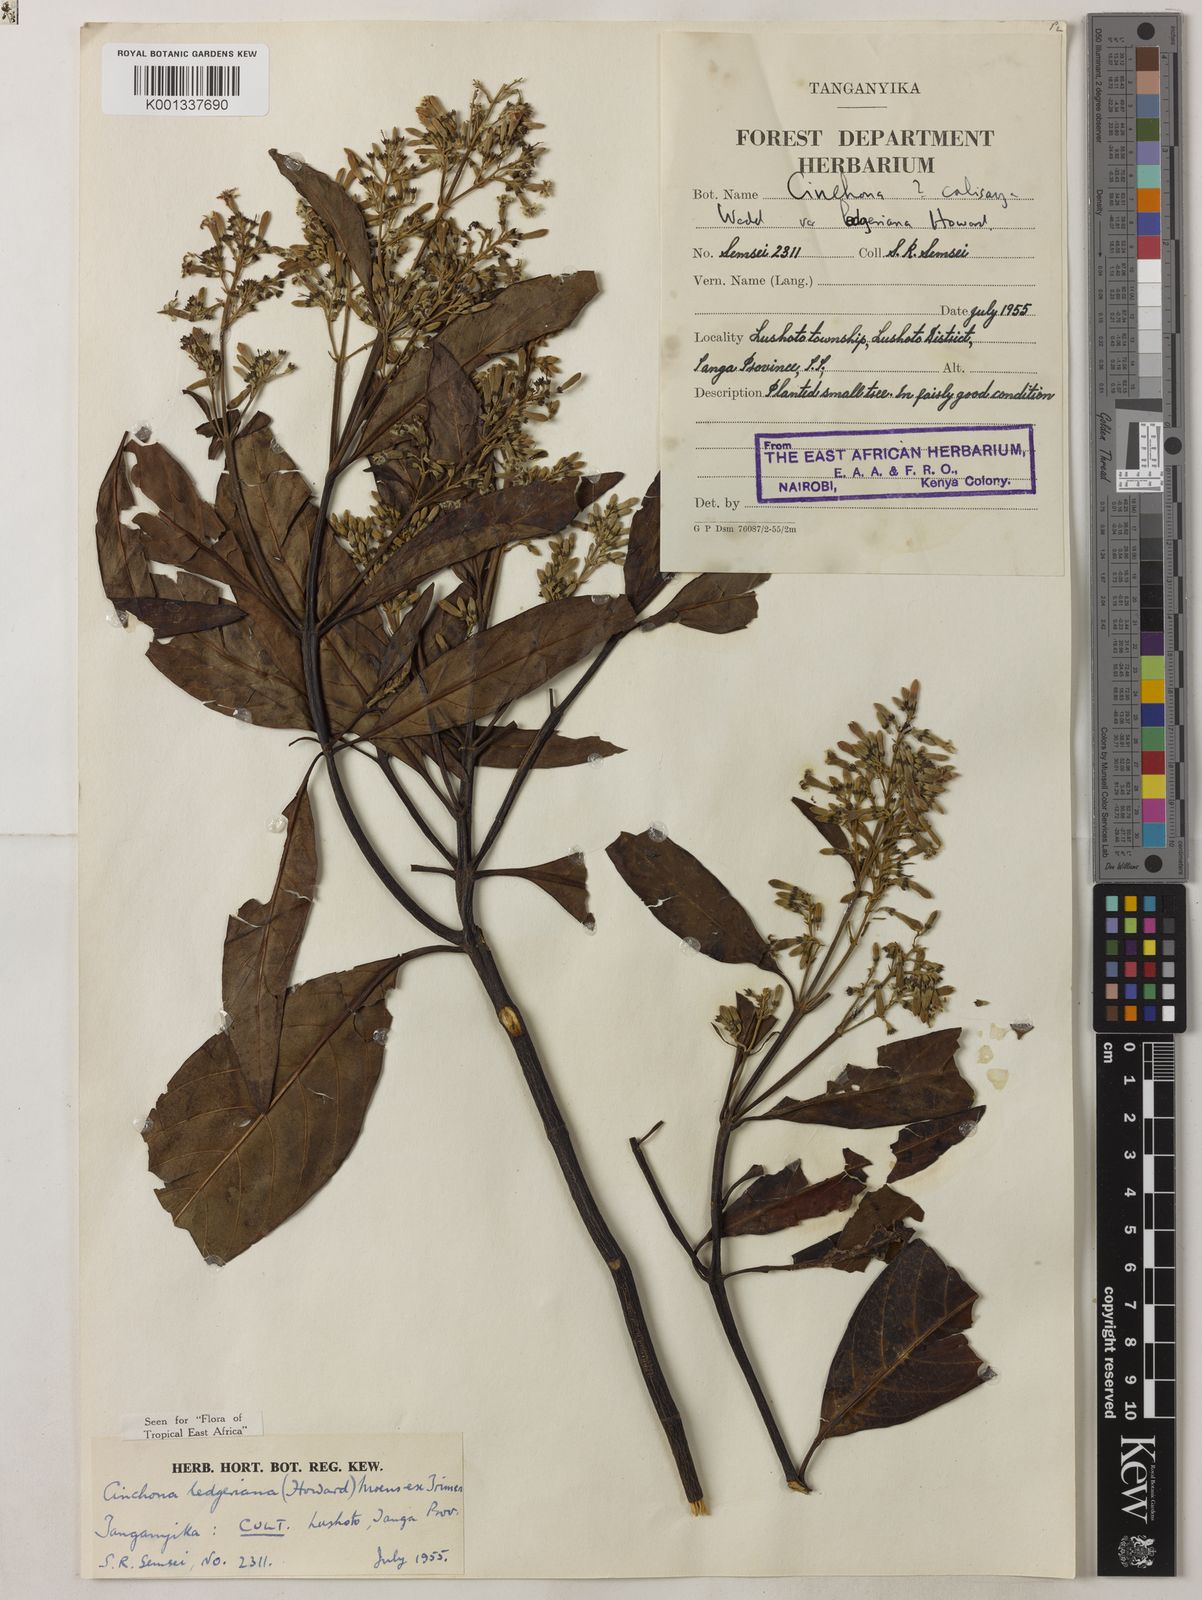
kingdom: Plantae
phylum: Tracheophyta
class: Magnoliopsida
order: Gentianales
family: Rubiaceae
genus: Cinchona
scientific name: Cinchona calisaya
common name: Ledgerbark
